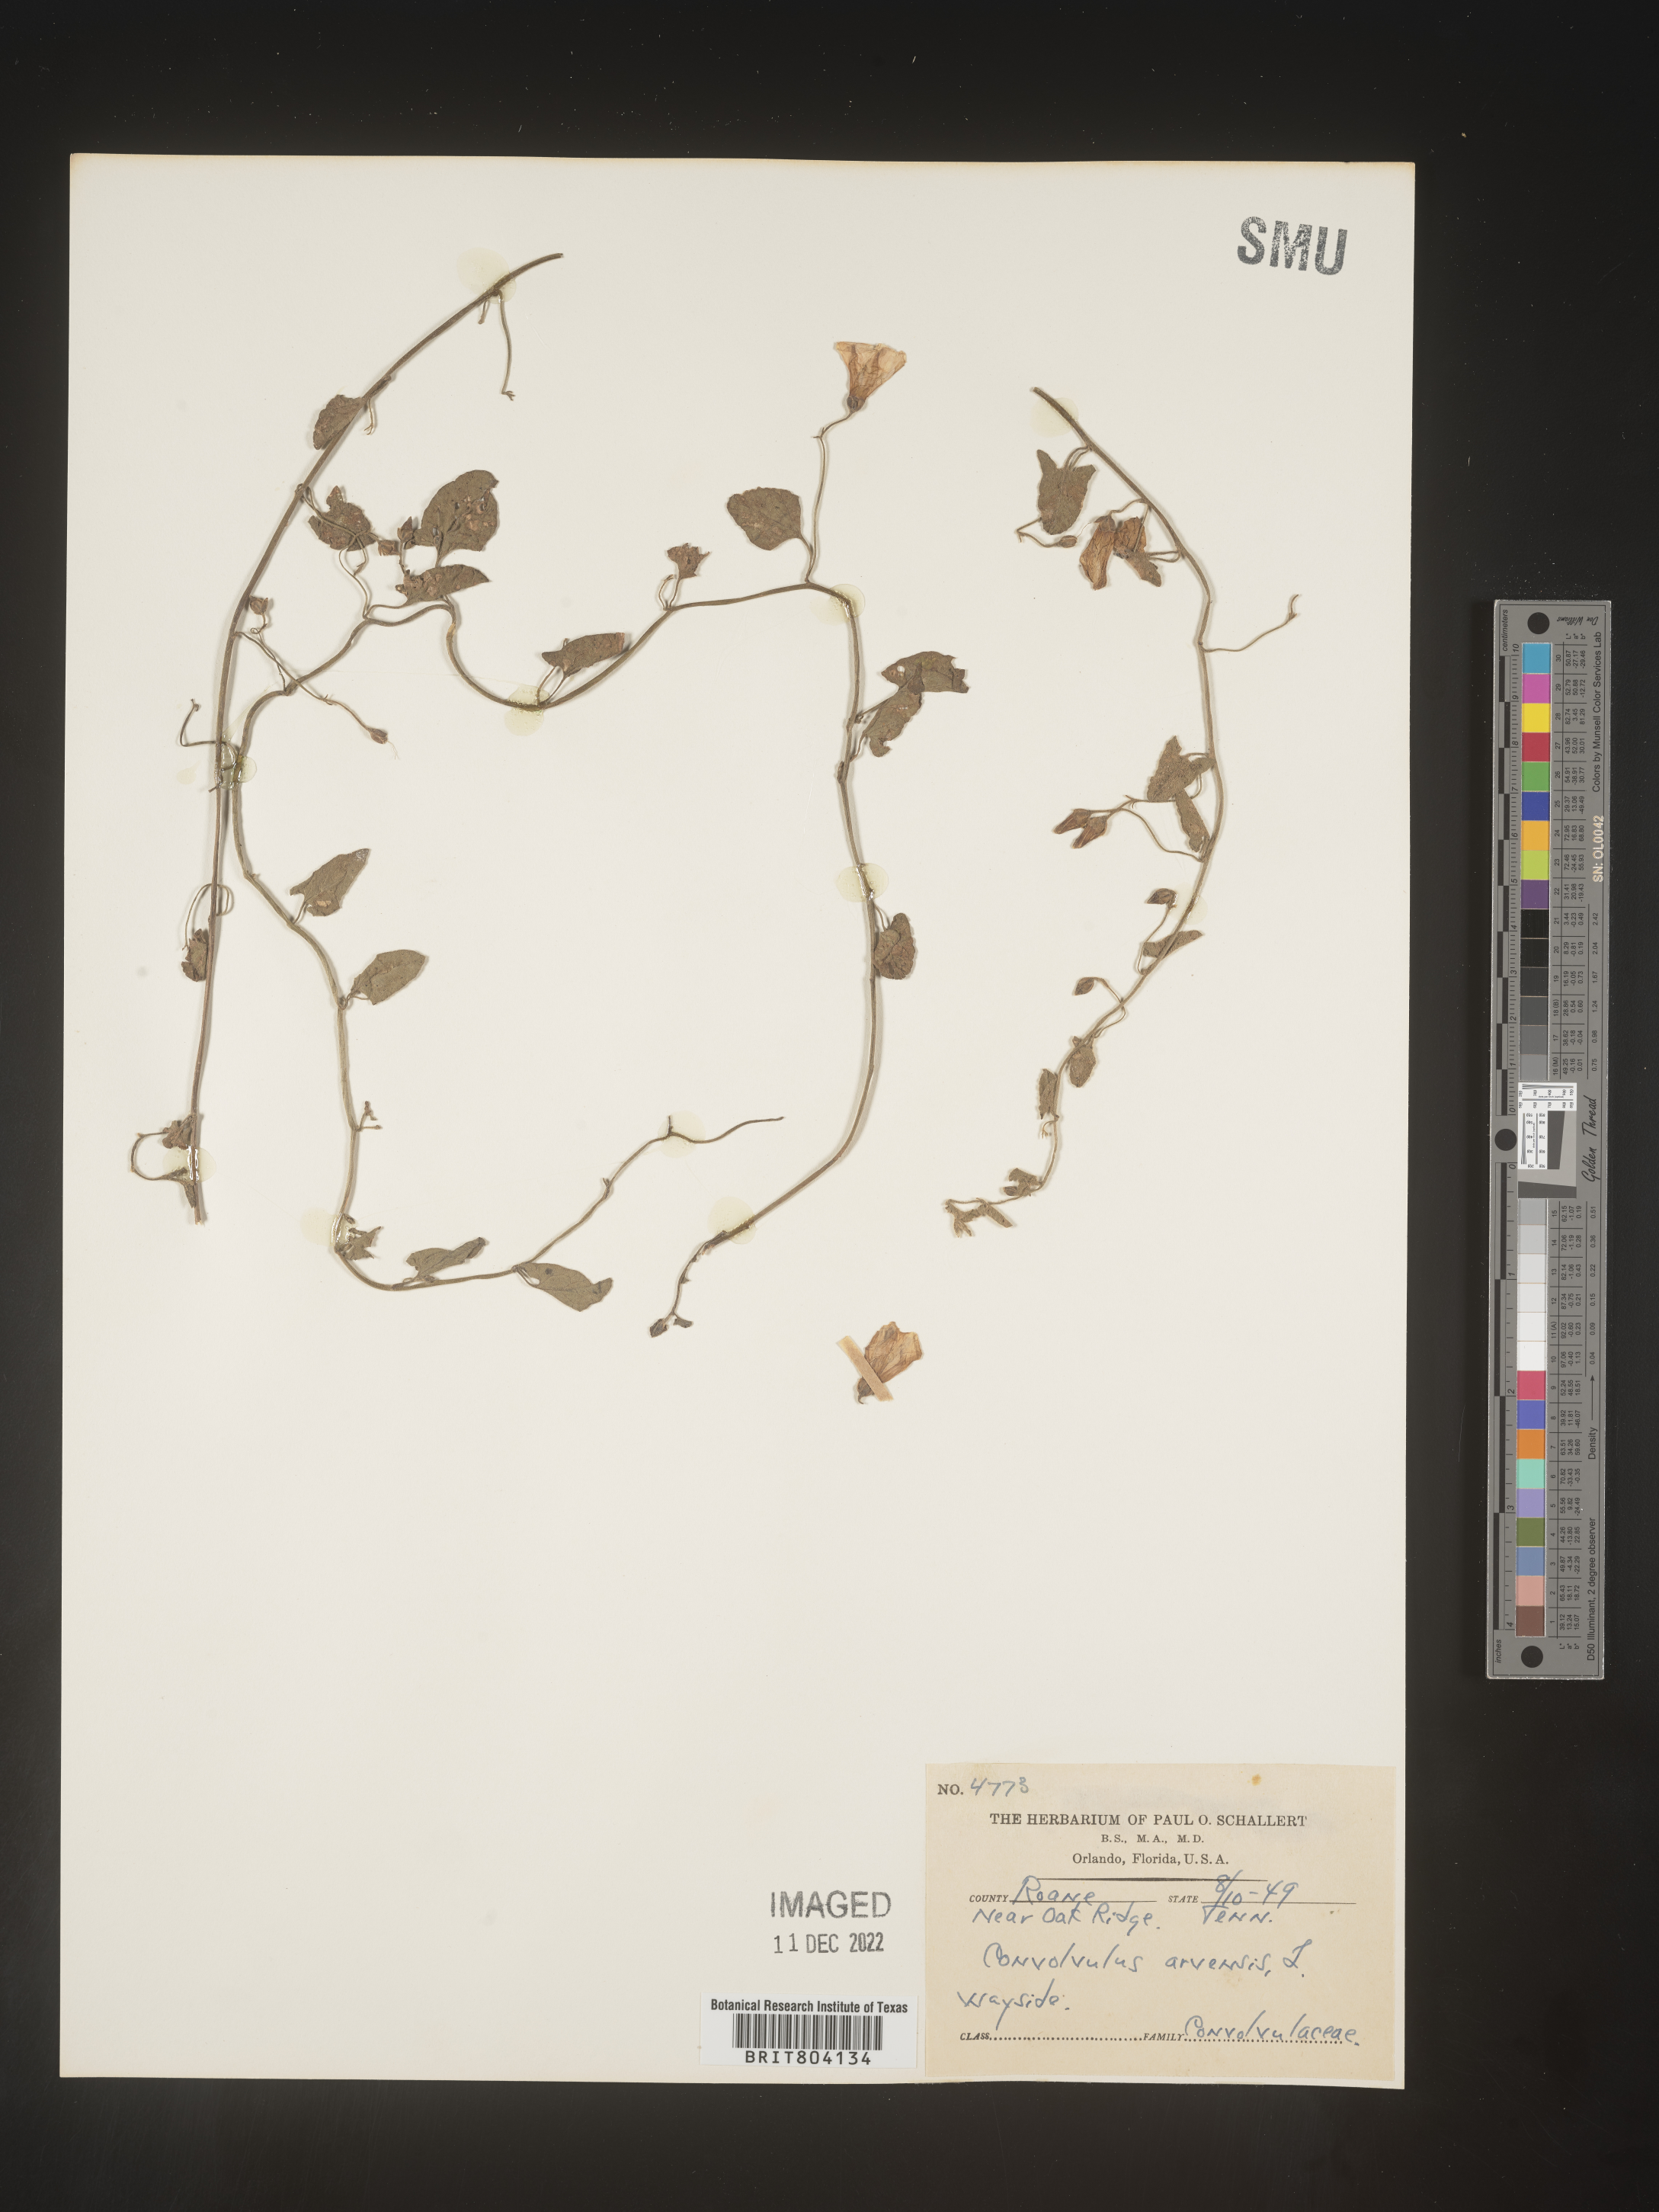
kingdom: Plantae
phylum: Tracheophyta
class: Magnoliopsida
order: Solanales
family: Convolvulaceae
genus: Convolvulus
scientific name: Convolvulus arvensis
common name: Field bindweed
